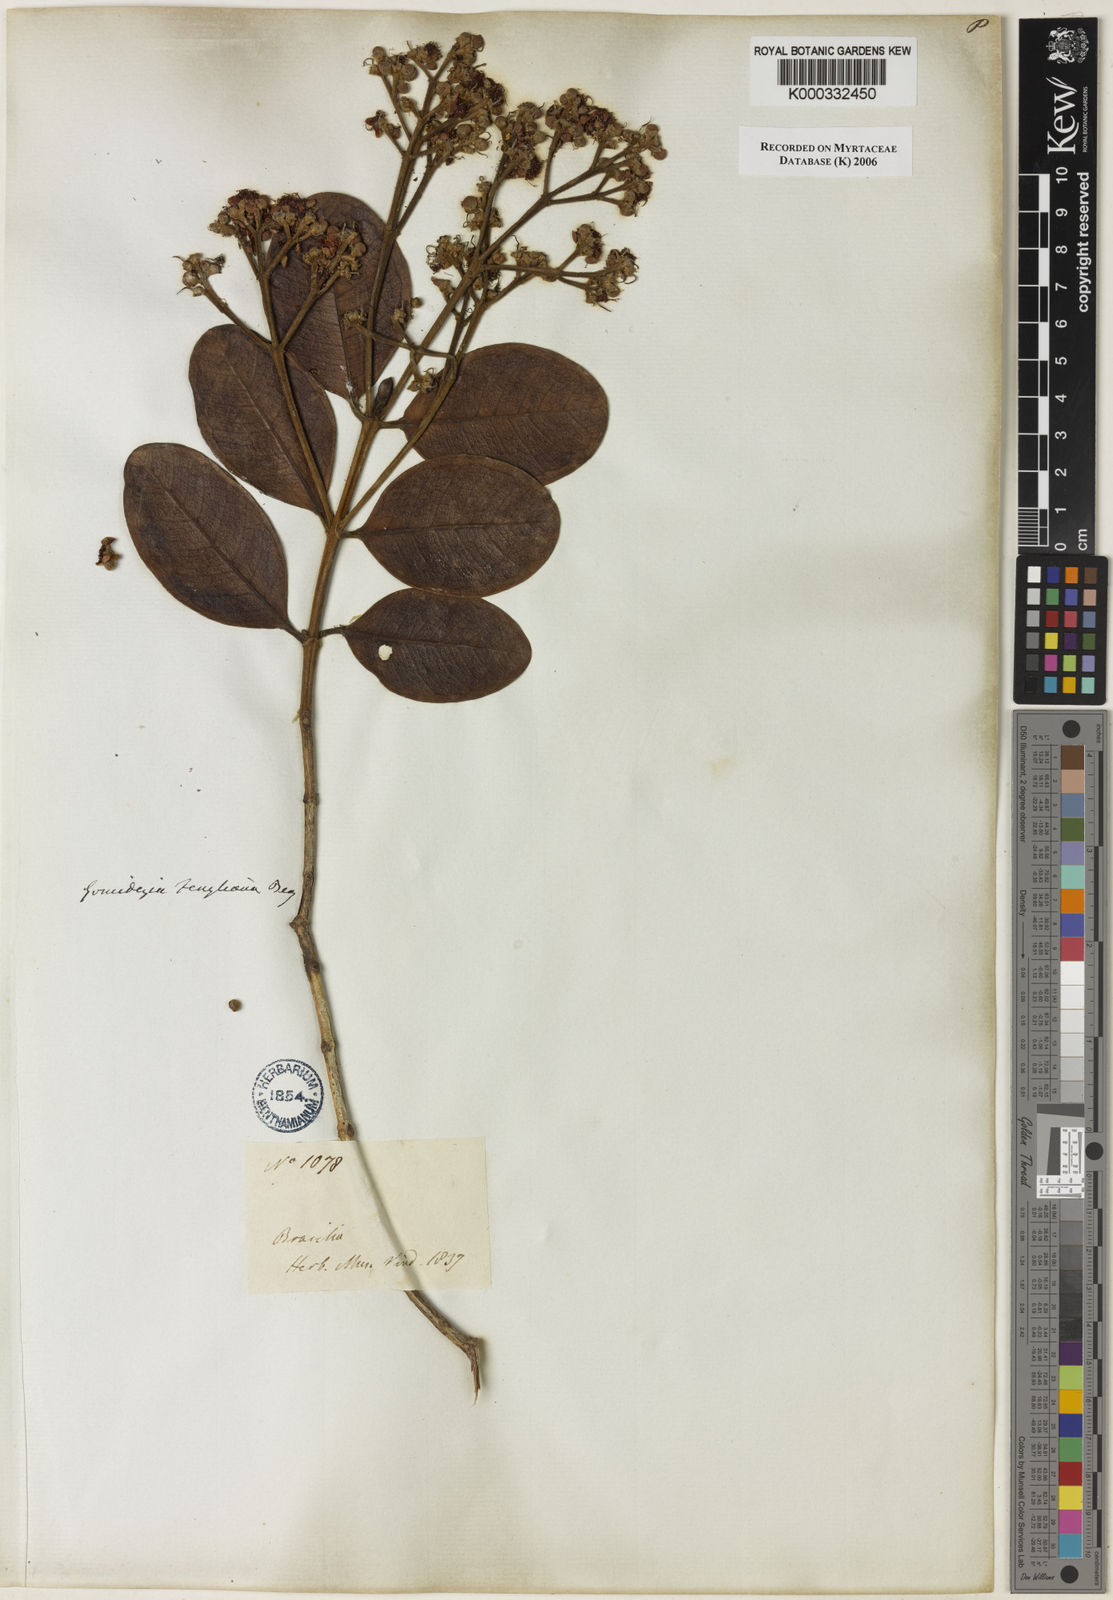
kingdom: Plantae
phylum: Tracheophyta
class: Magnoliopsida
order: Myrtales
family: Myrtaceae
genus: Myrcia
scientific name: Myrcia ilheosensis
